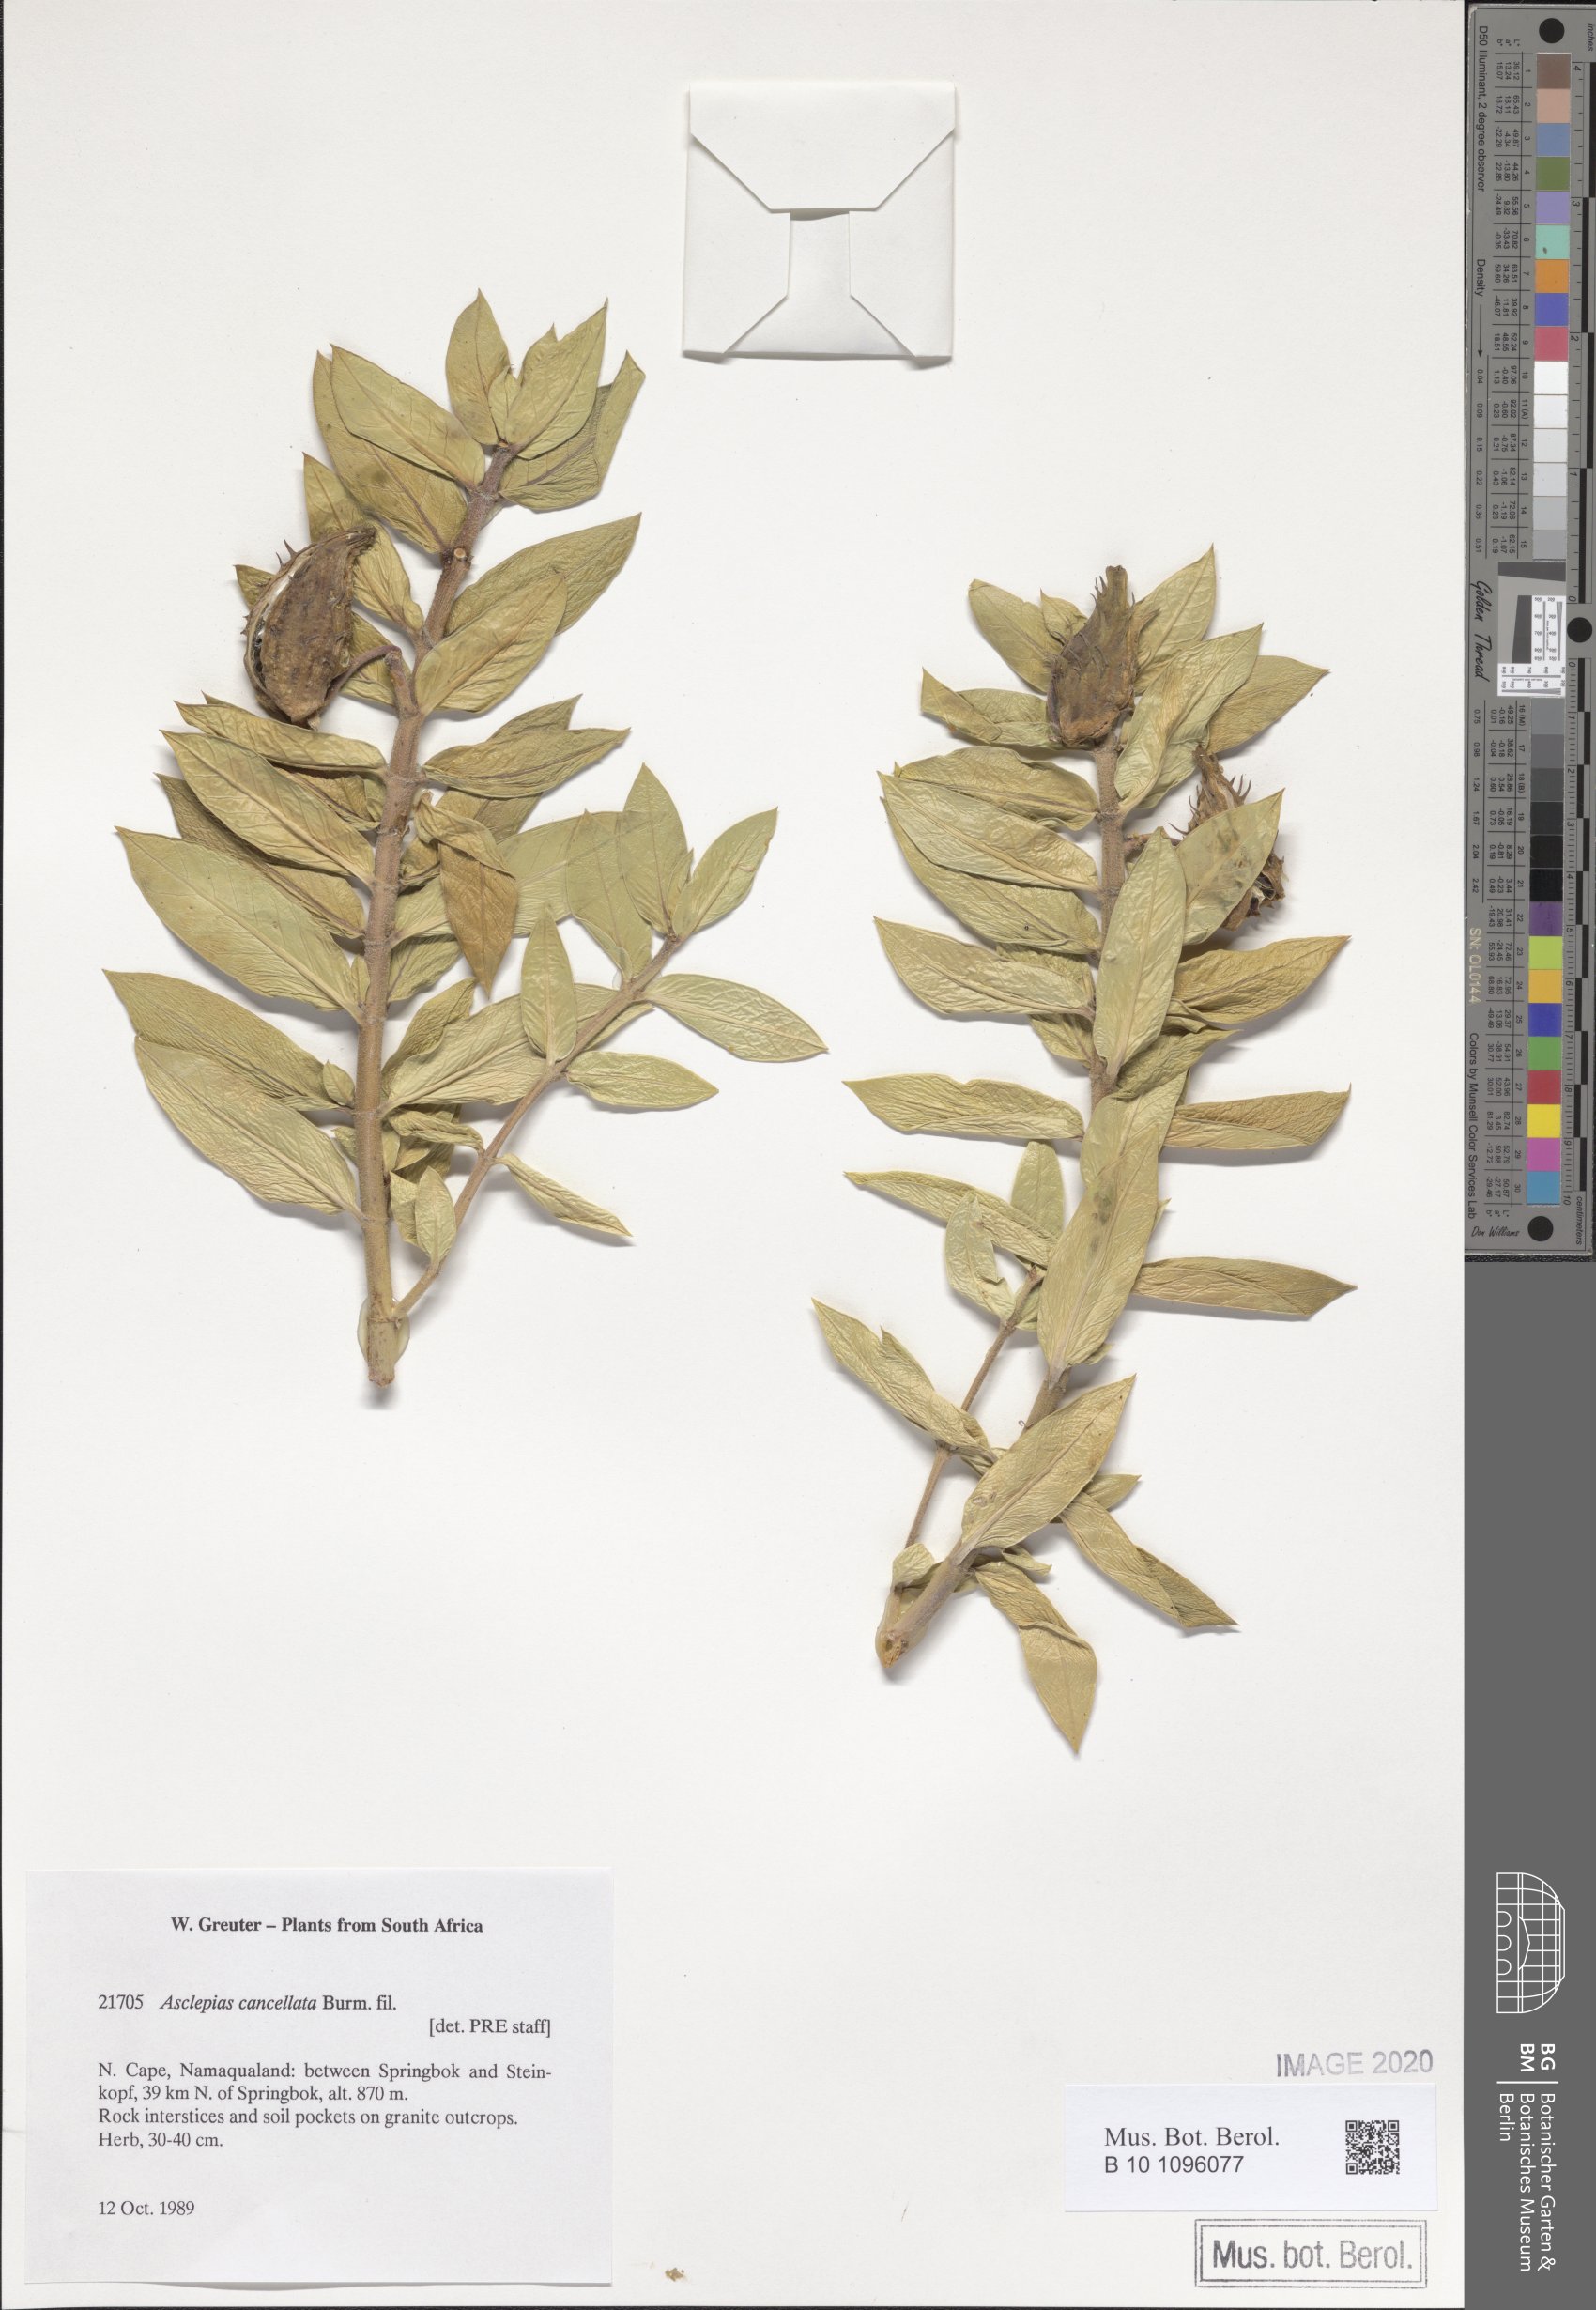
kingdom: Plantae
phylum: Tracheophyta
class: Magnoliopsida
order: Asterales
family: Asteraceae
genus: Leucanthemum
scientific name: Leucanthemum ircutianum
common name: Daisy
